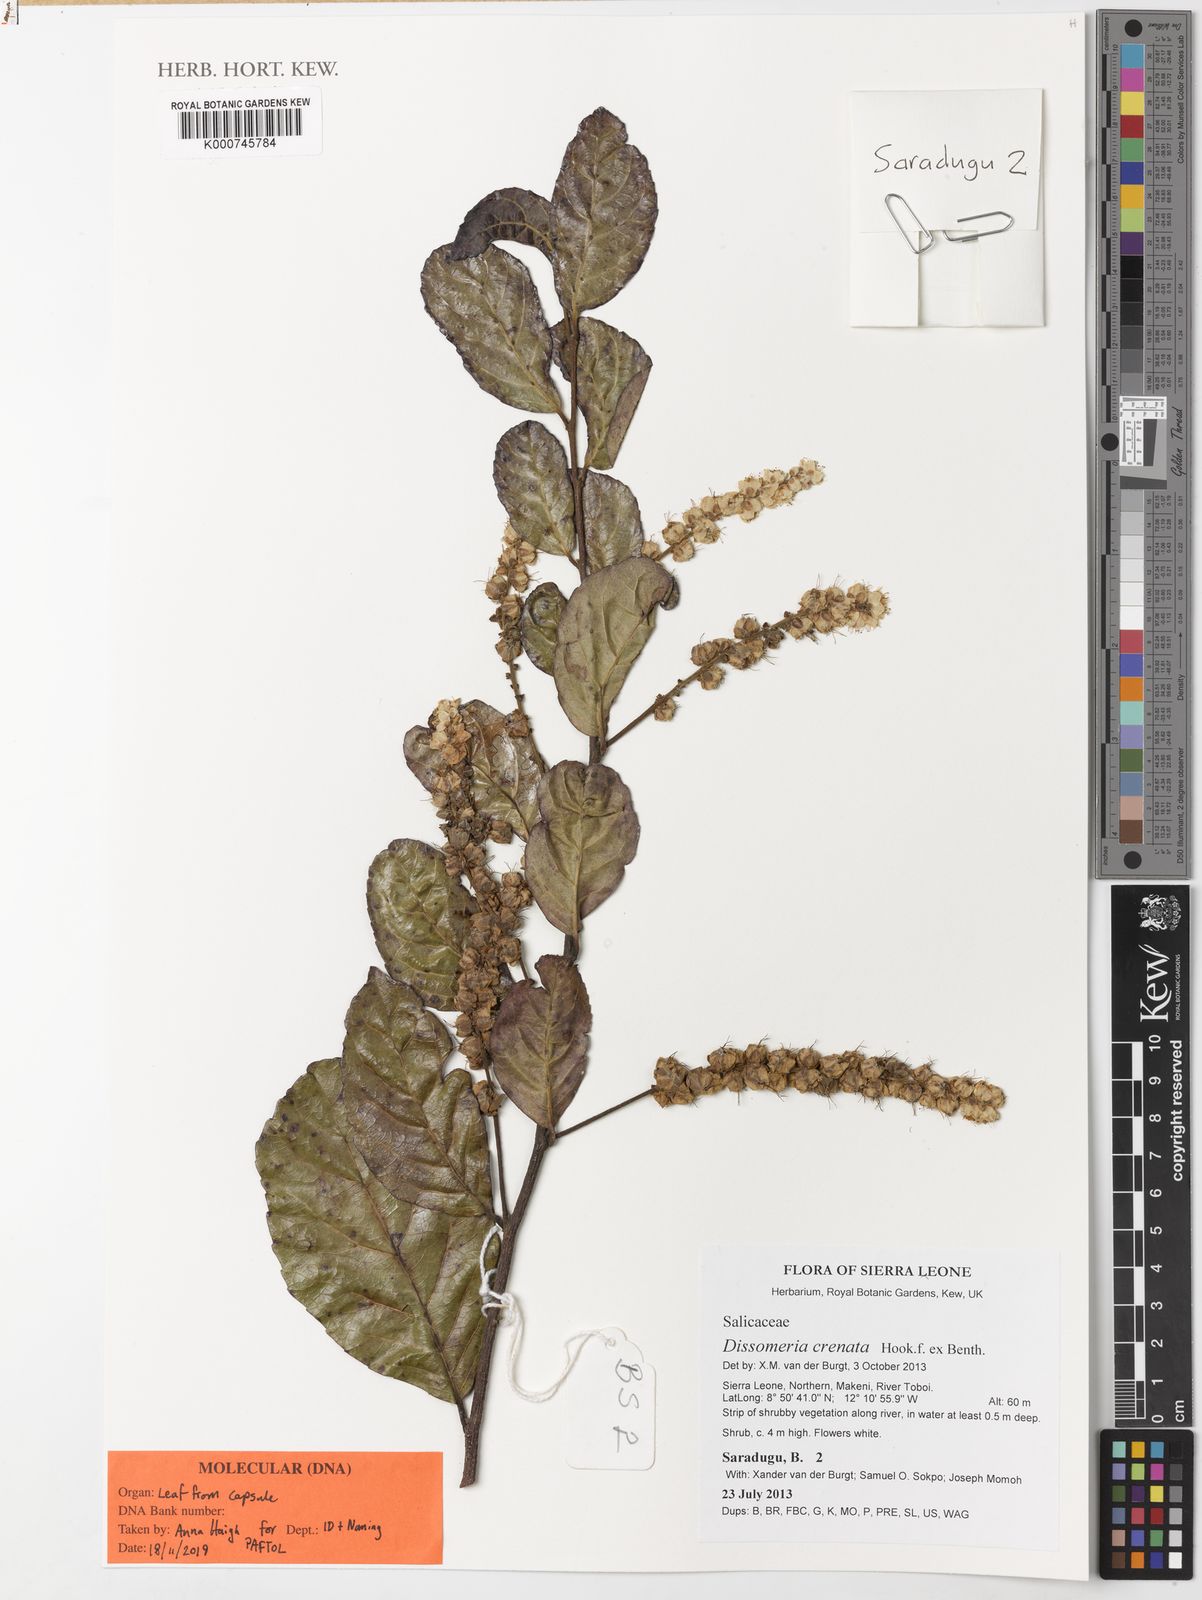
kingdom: Plantae
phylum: Tracheophyta
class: Magnoliopsida
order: Gentianales
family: Rubiaceae
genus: Sherbournia
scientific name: Sherbournia bignoniiflora
